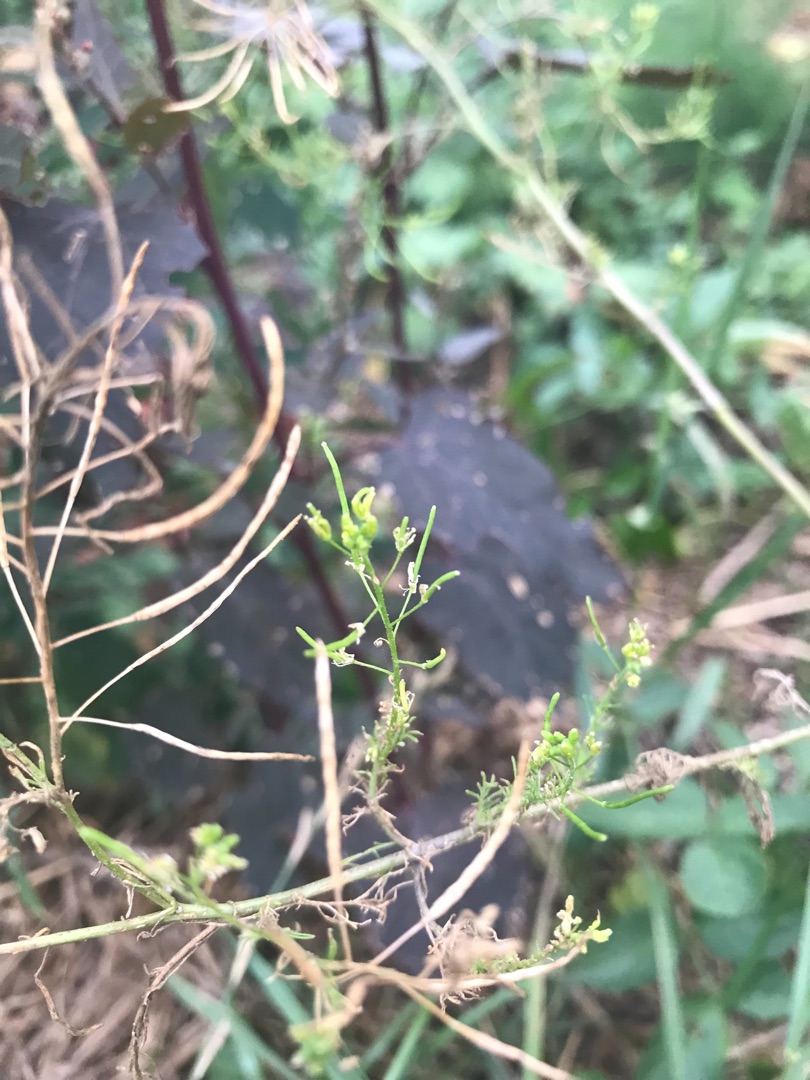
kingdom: Plantae
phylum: Tracheophyta
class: Magnoliopsida
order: Brassicales
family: Brassicaceae
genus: Descurainia
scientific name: Descurainia sophia
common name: Finbladet vejsennep
